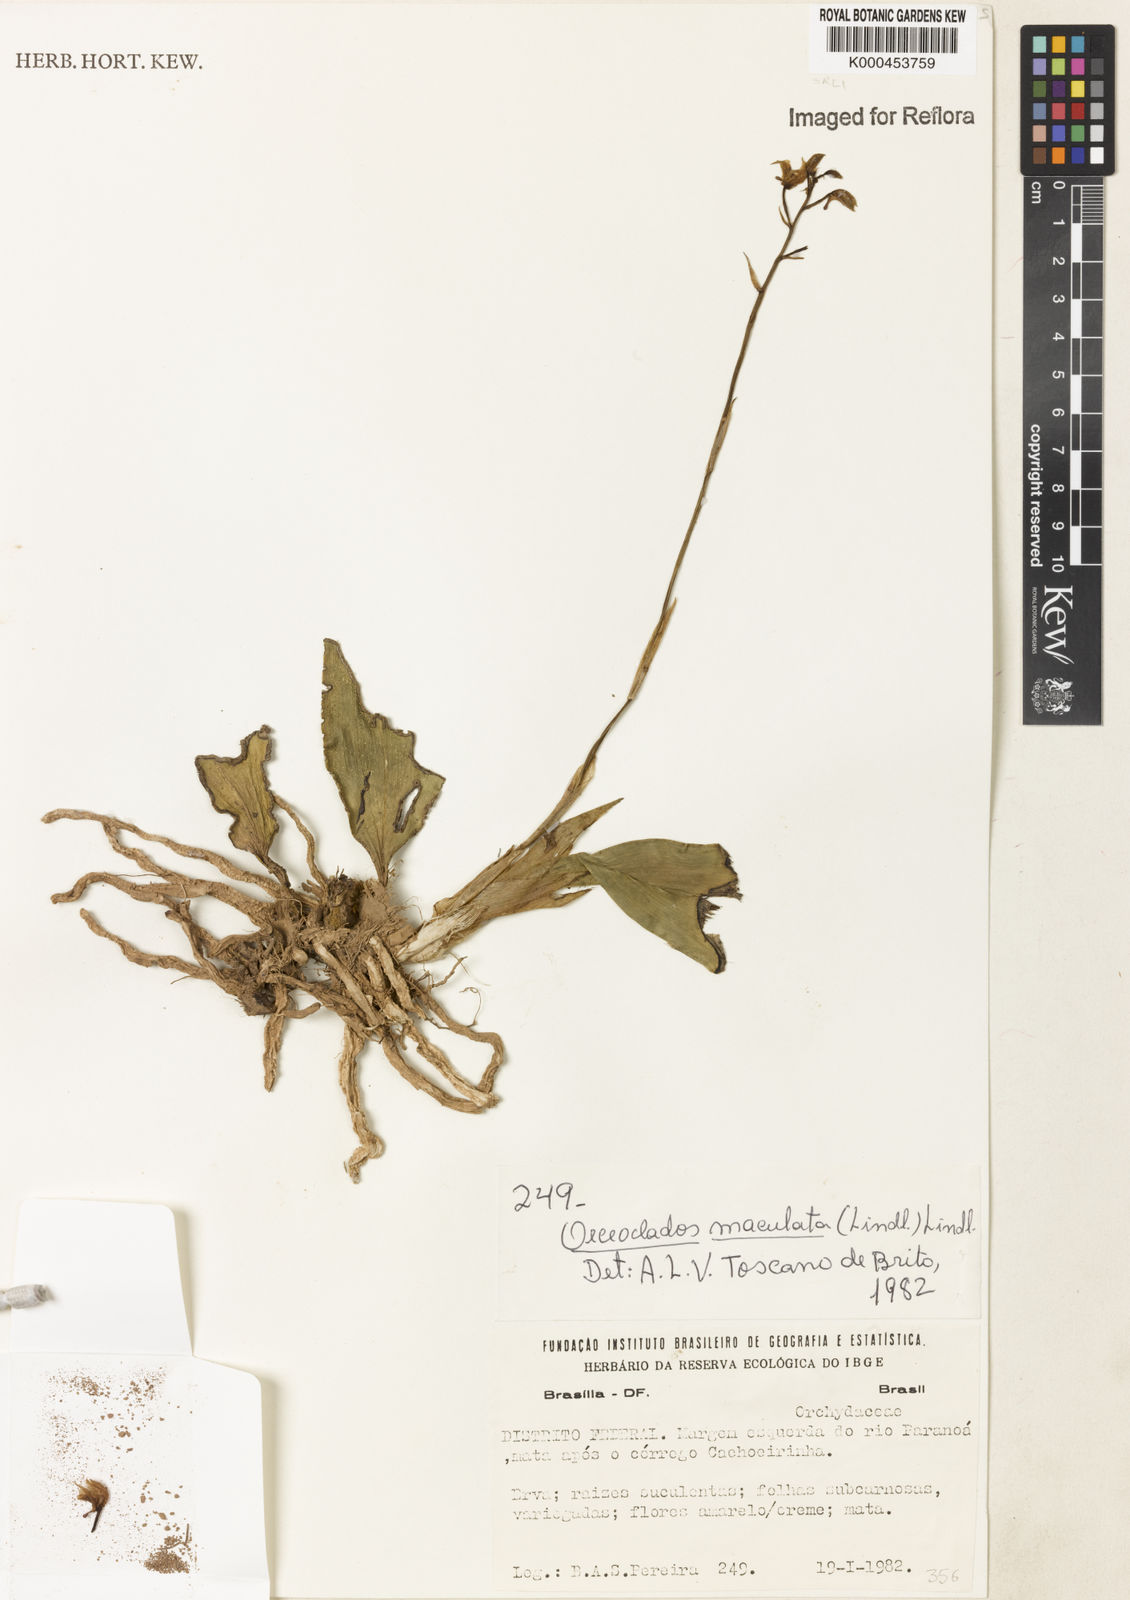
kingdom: Plantae
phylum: Tracheophyta
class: Liliopsida
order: Asparagales
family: Orchidaceae
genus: Eulophia
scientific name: Eulophia maculata
